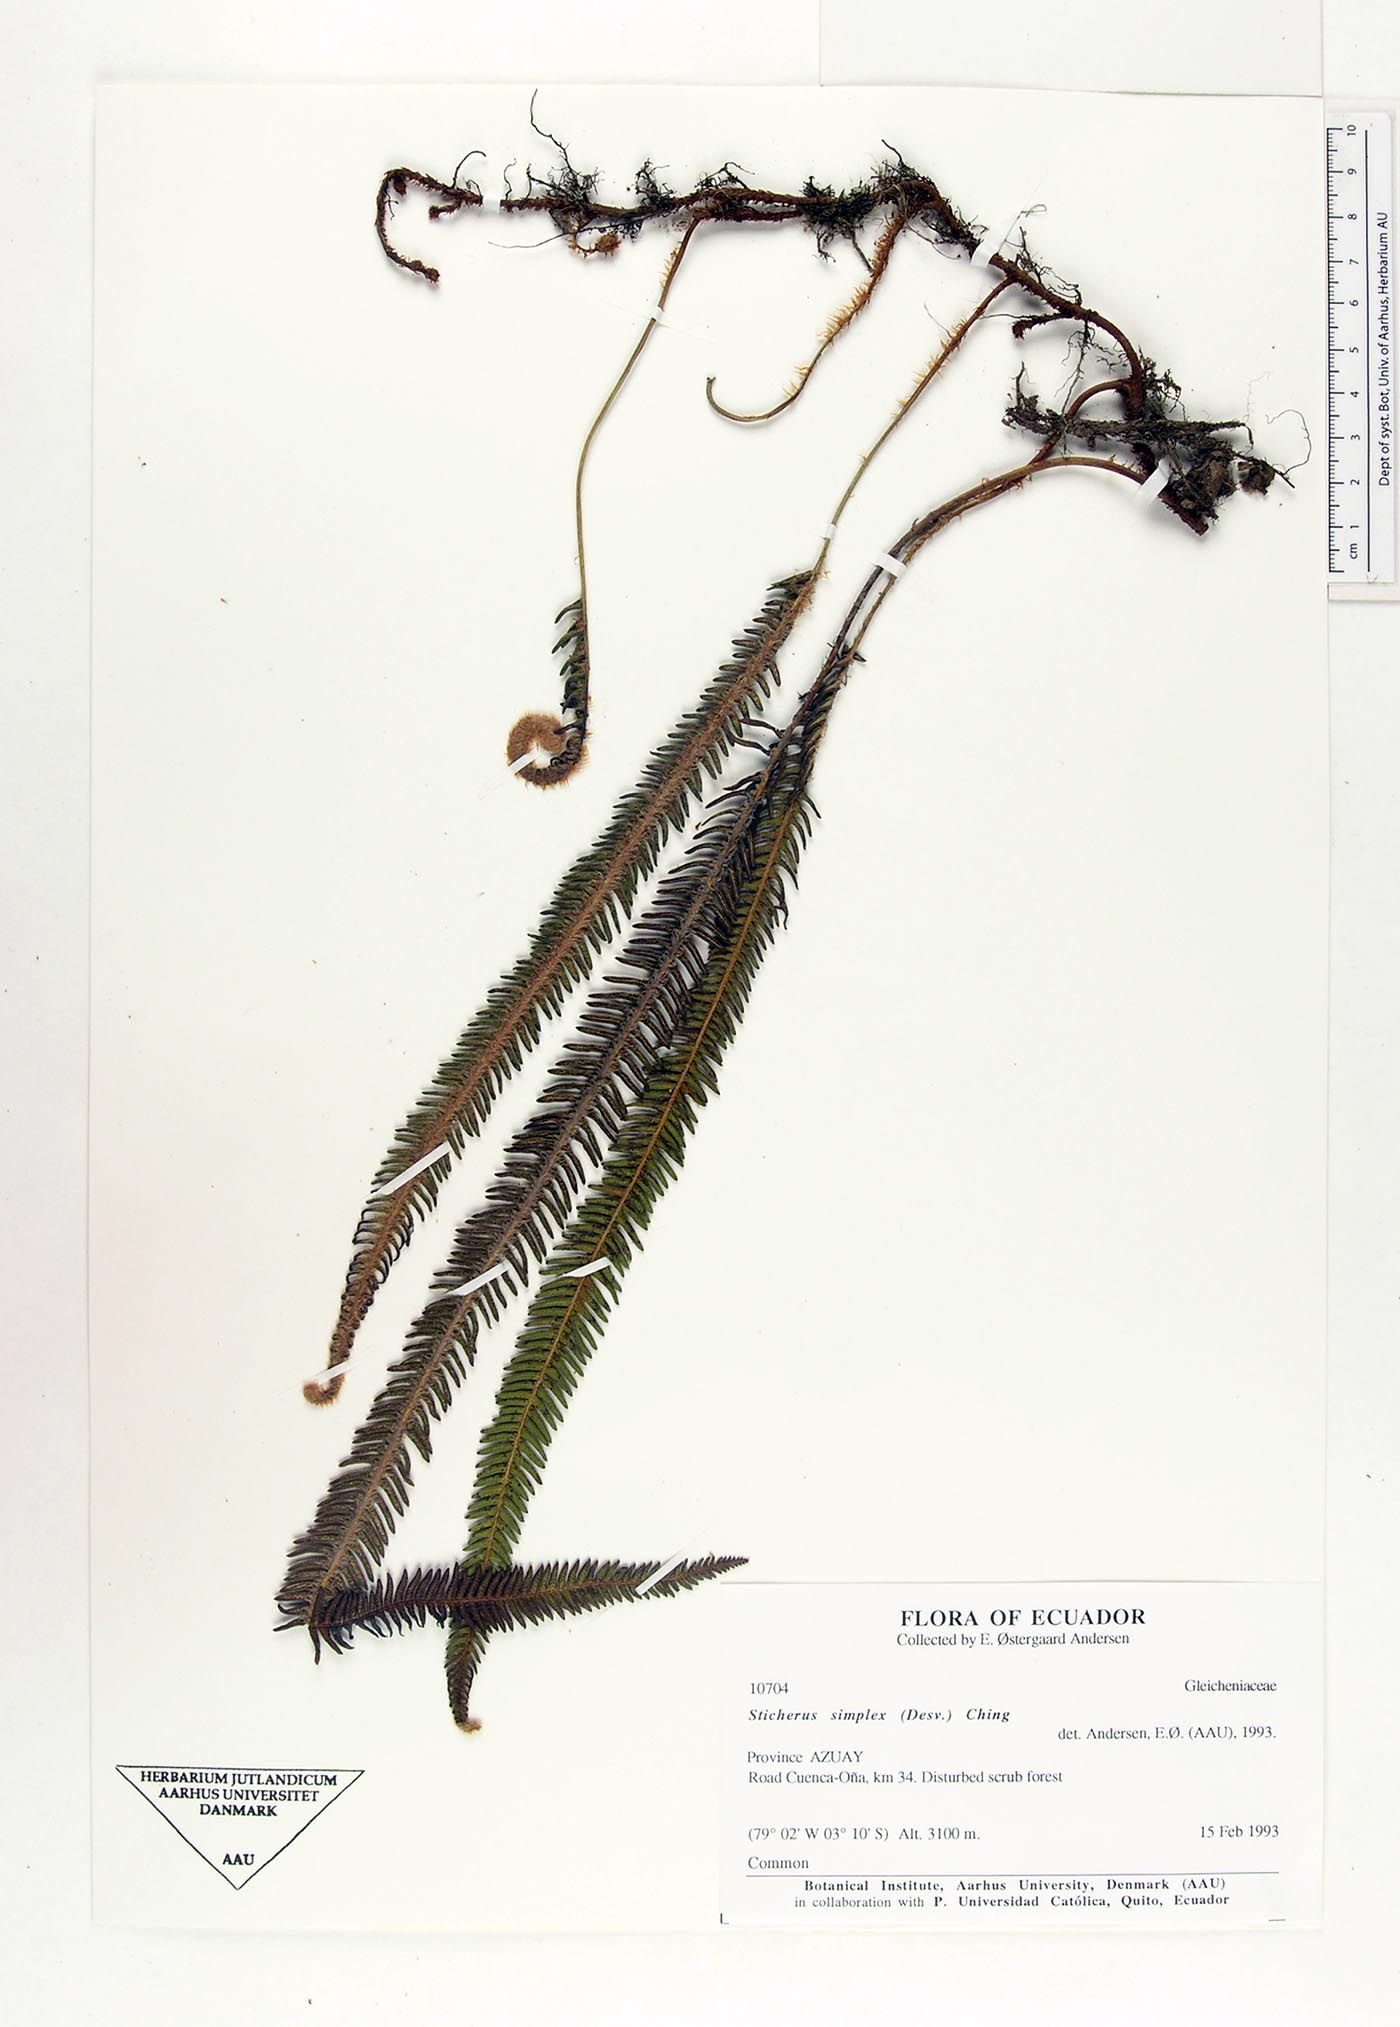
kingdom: Plantae
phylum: Tracheophyta
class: Polypodiopsida
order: Gleicheniales
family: Gleicheniaceae
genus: Sticherus
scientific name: Sticherus simplex
